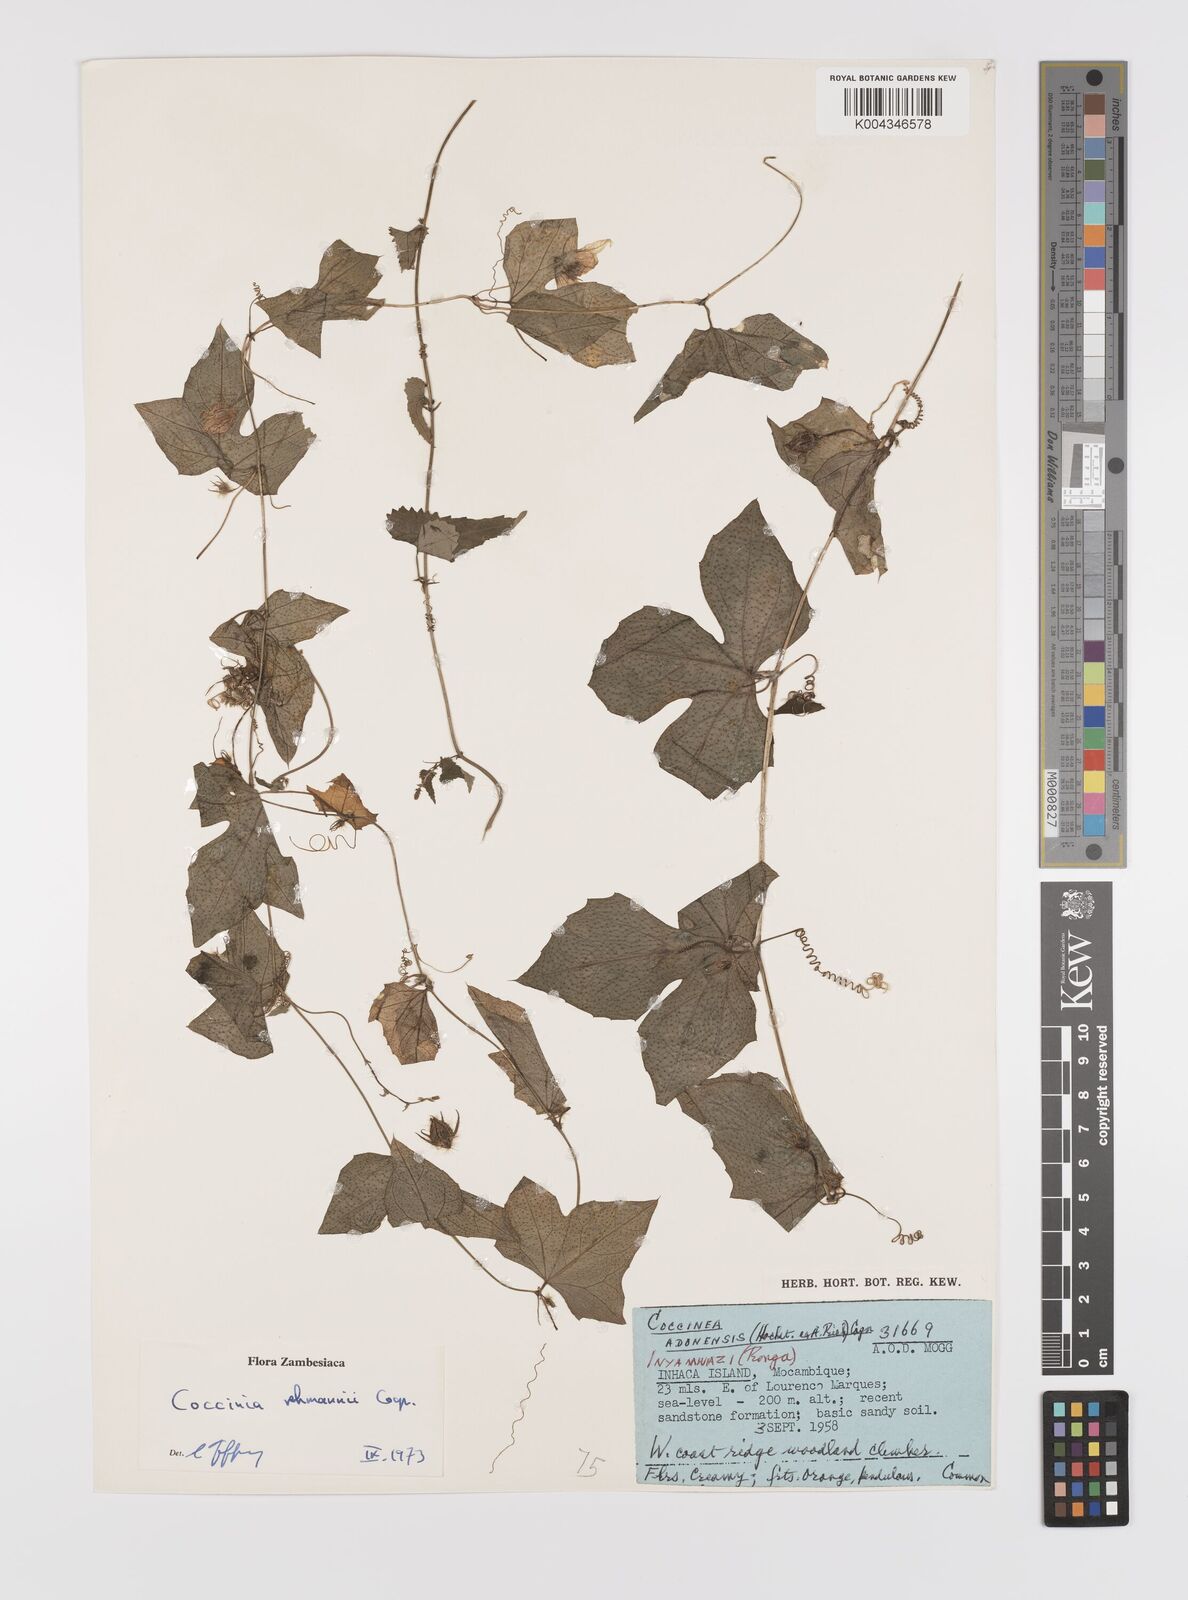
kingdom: Plantae
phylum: Tracheophyta
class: Magnoliopsida
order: Cucurbitales
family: Cucurbitaceae
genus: Coccinia
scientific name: Coccinia rehmannii
